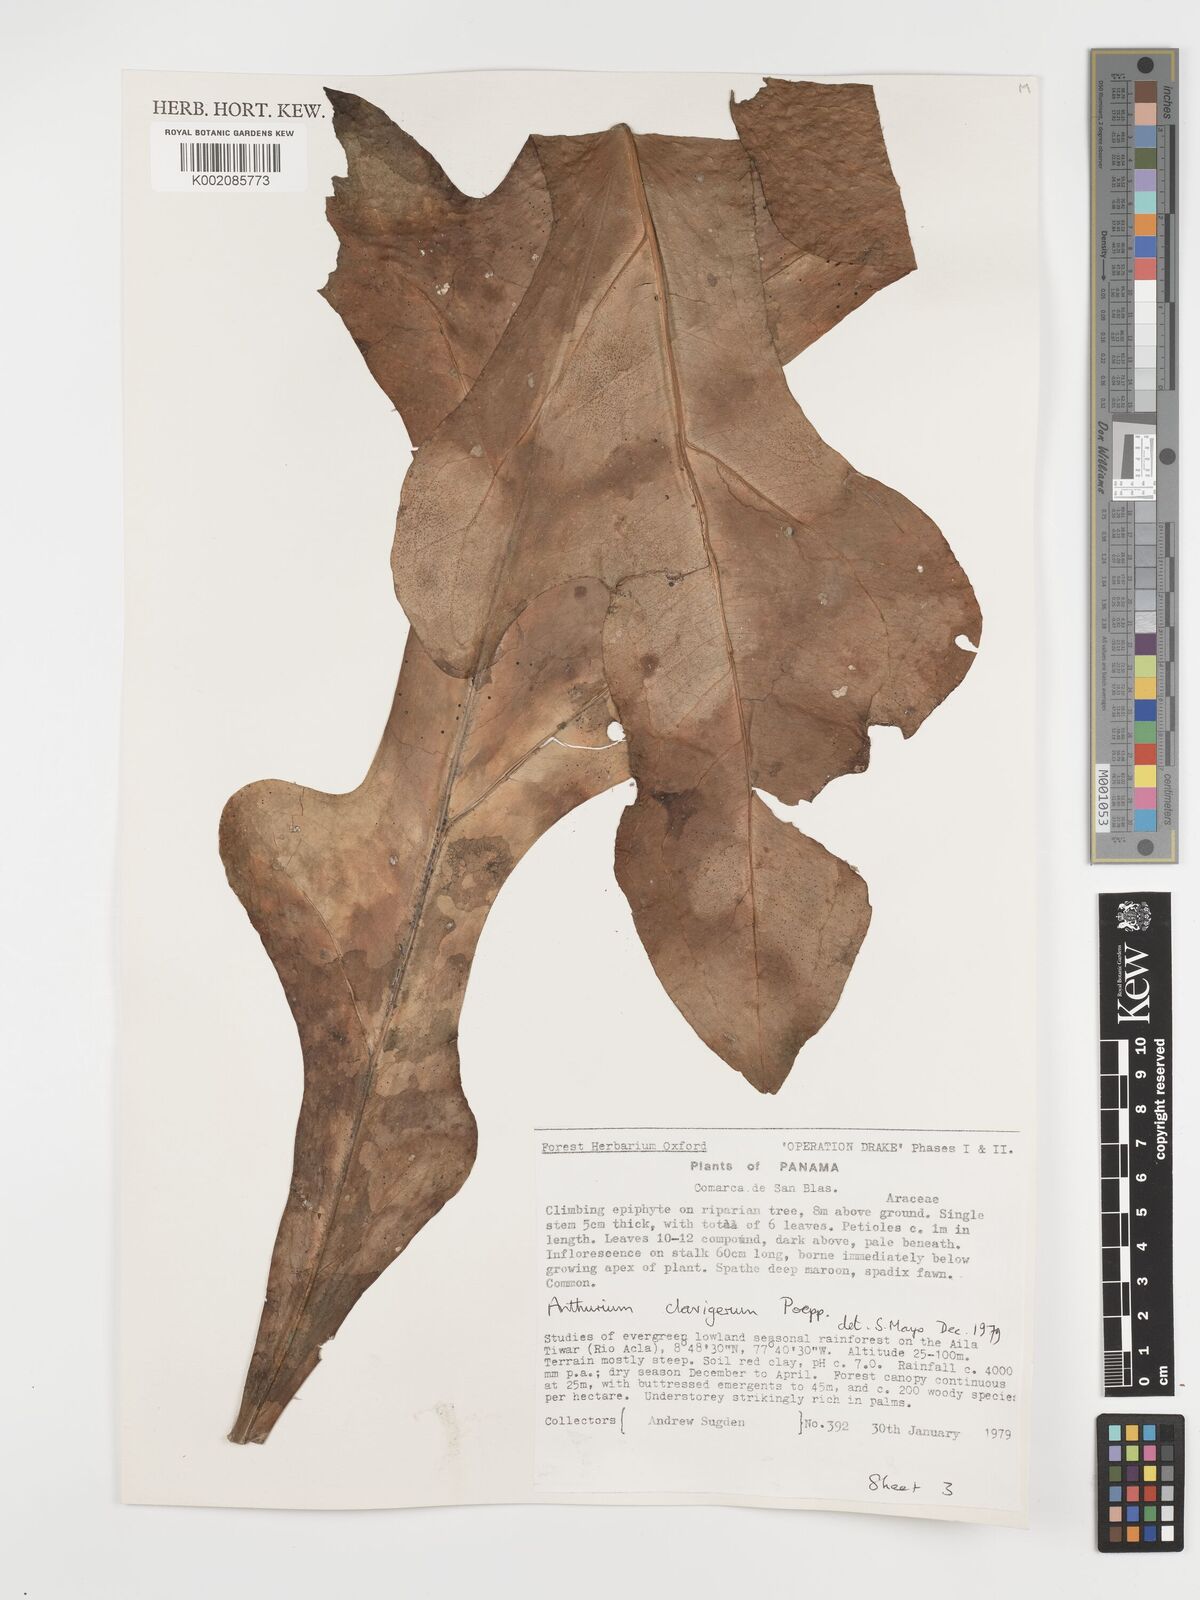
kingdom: Plantae
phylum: Tracheophyta
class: Liliopsida
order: Alismatales
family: Araceae
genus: Anthurium
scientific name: Anthurium clavigerum
